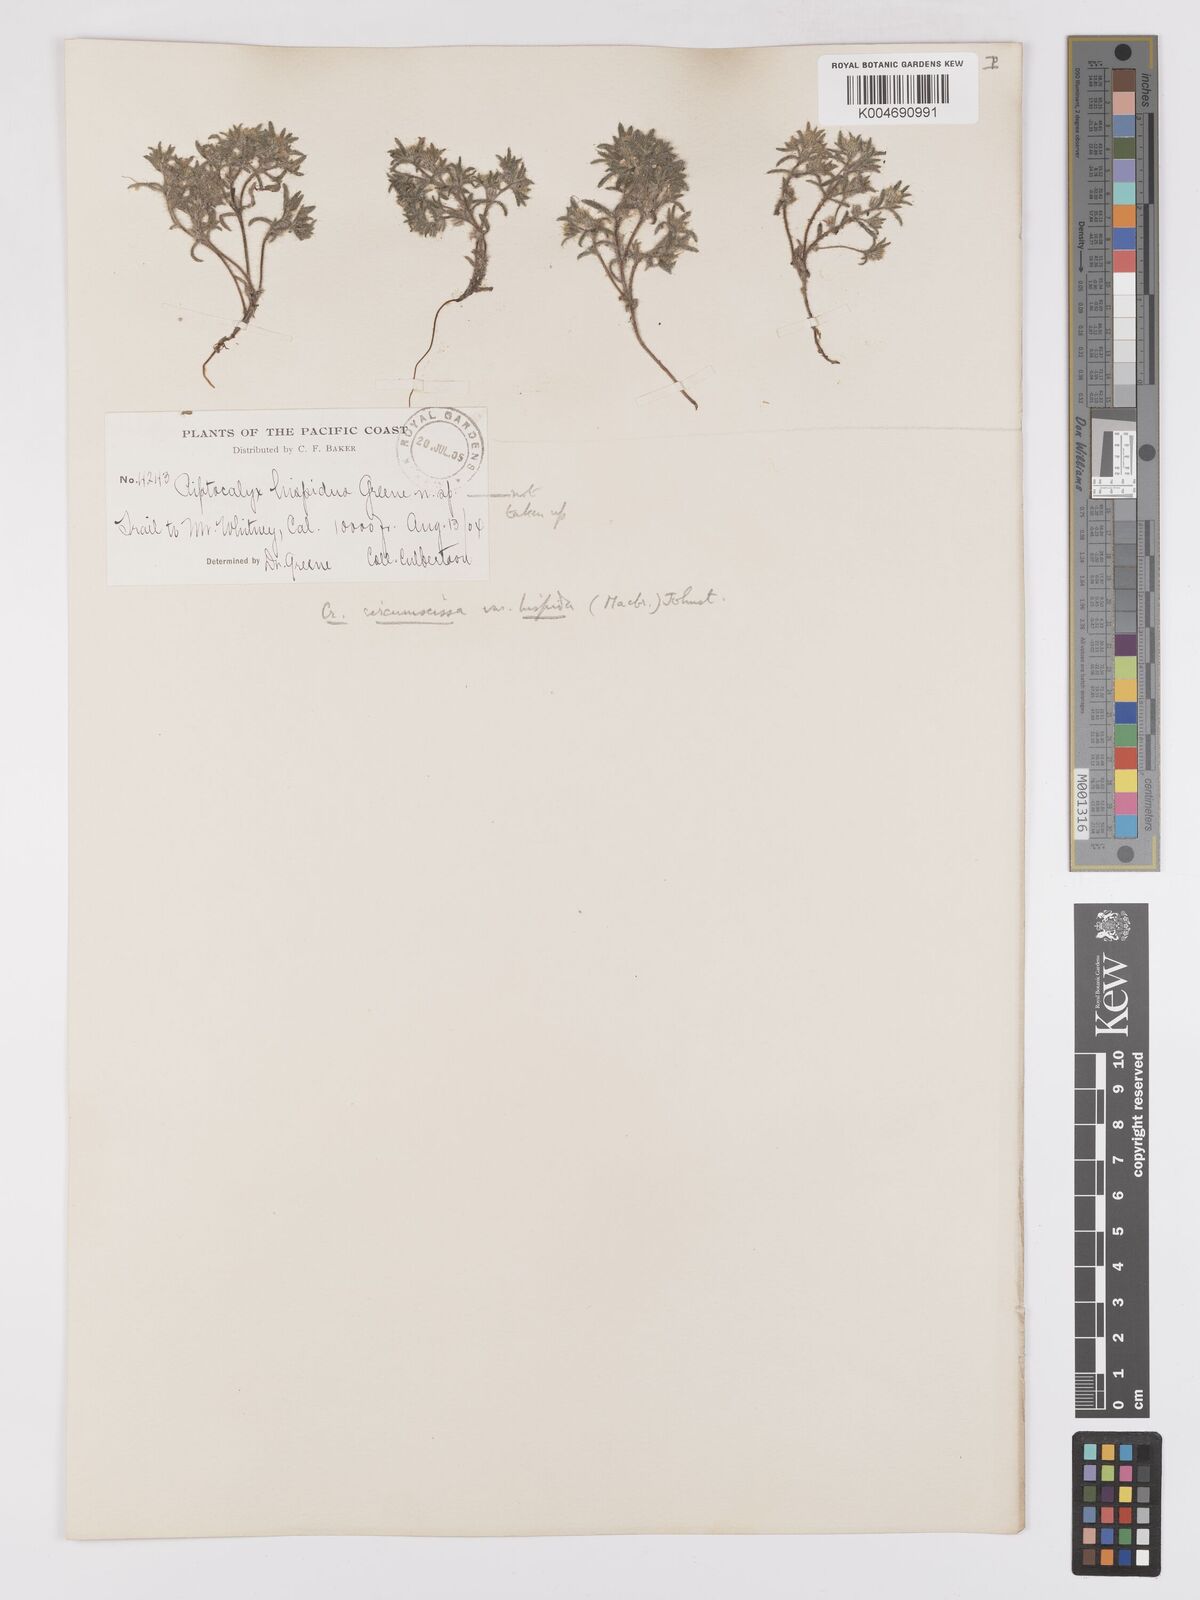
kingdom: Plantae
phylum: Tracheophyta
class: Magnoliopsida
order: Boraginales
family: Boraginaceae
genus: Greeneocharis
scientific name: Greeneocharis circumscissa
